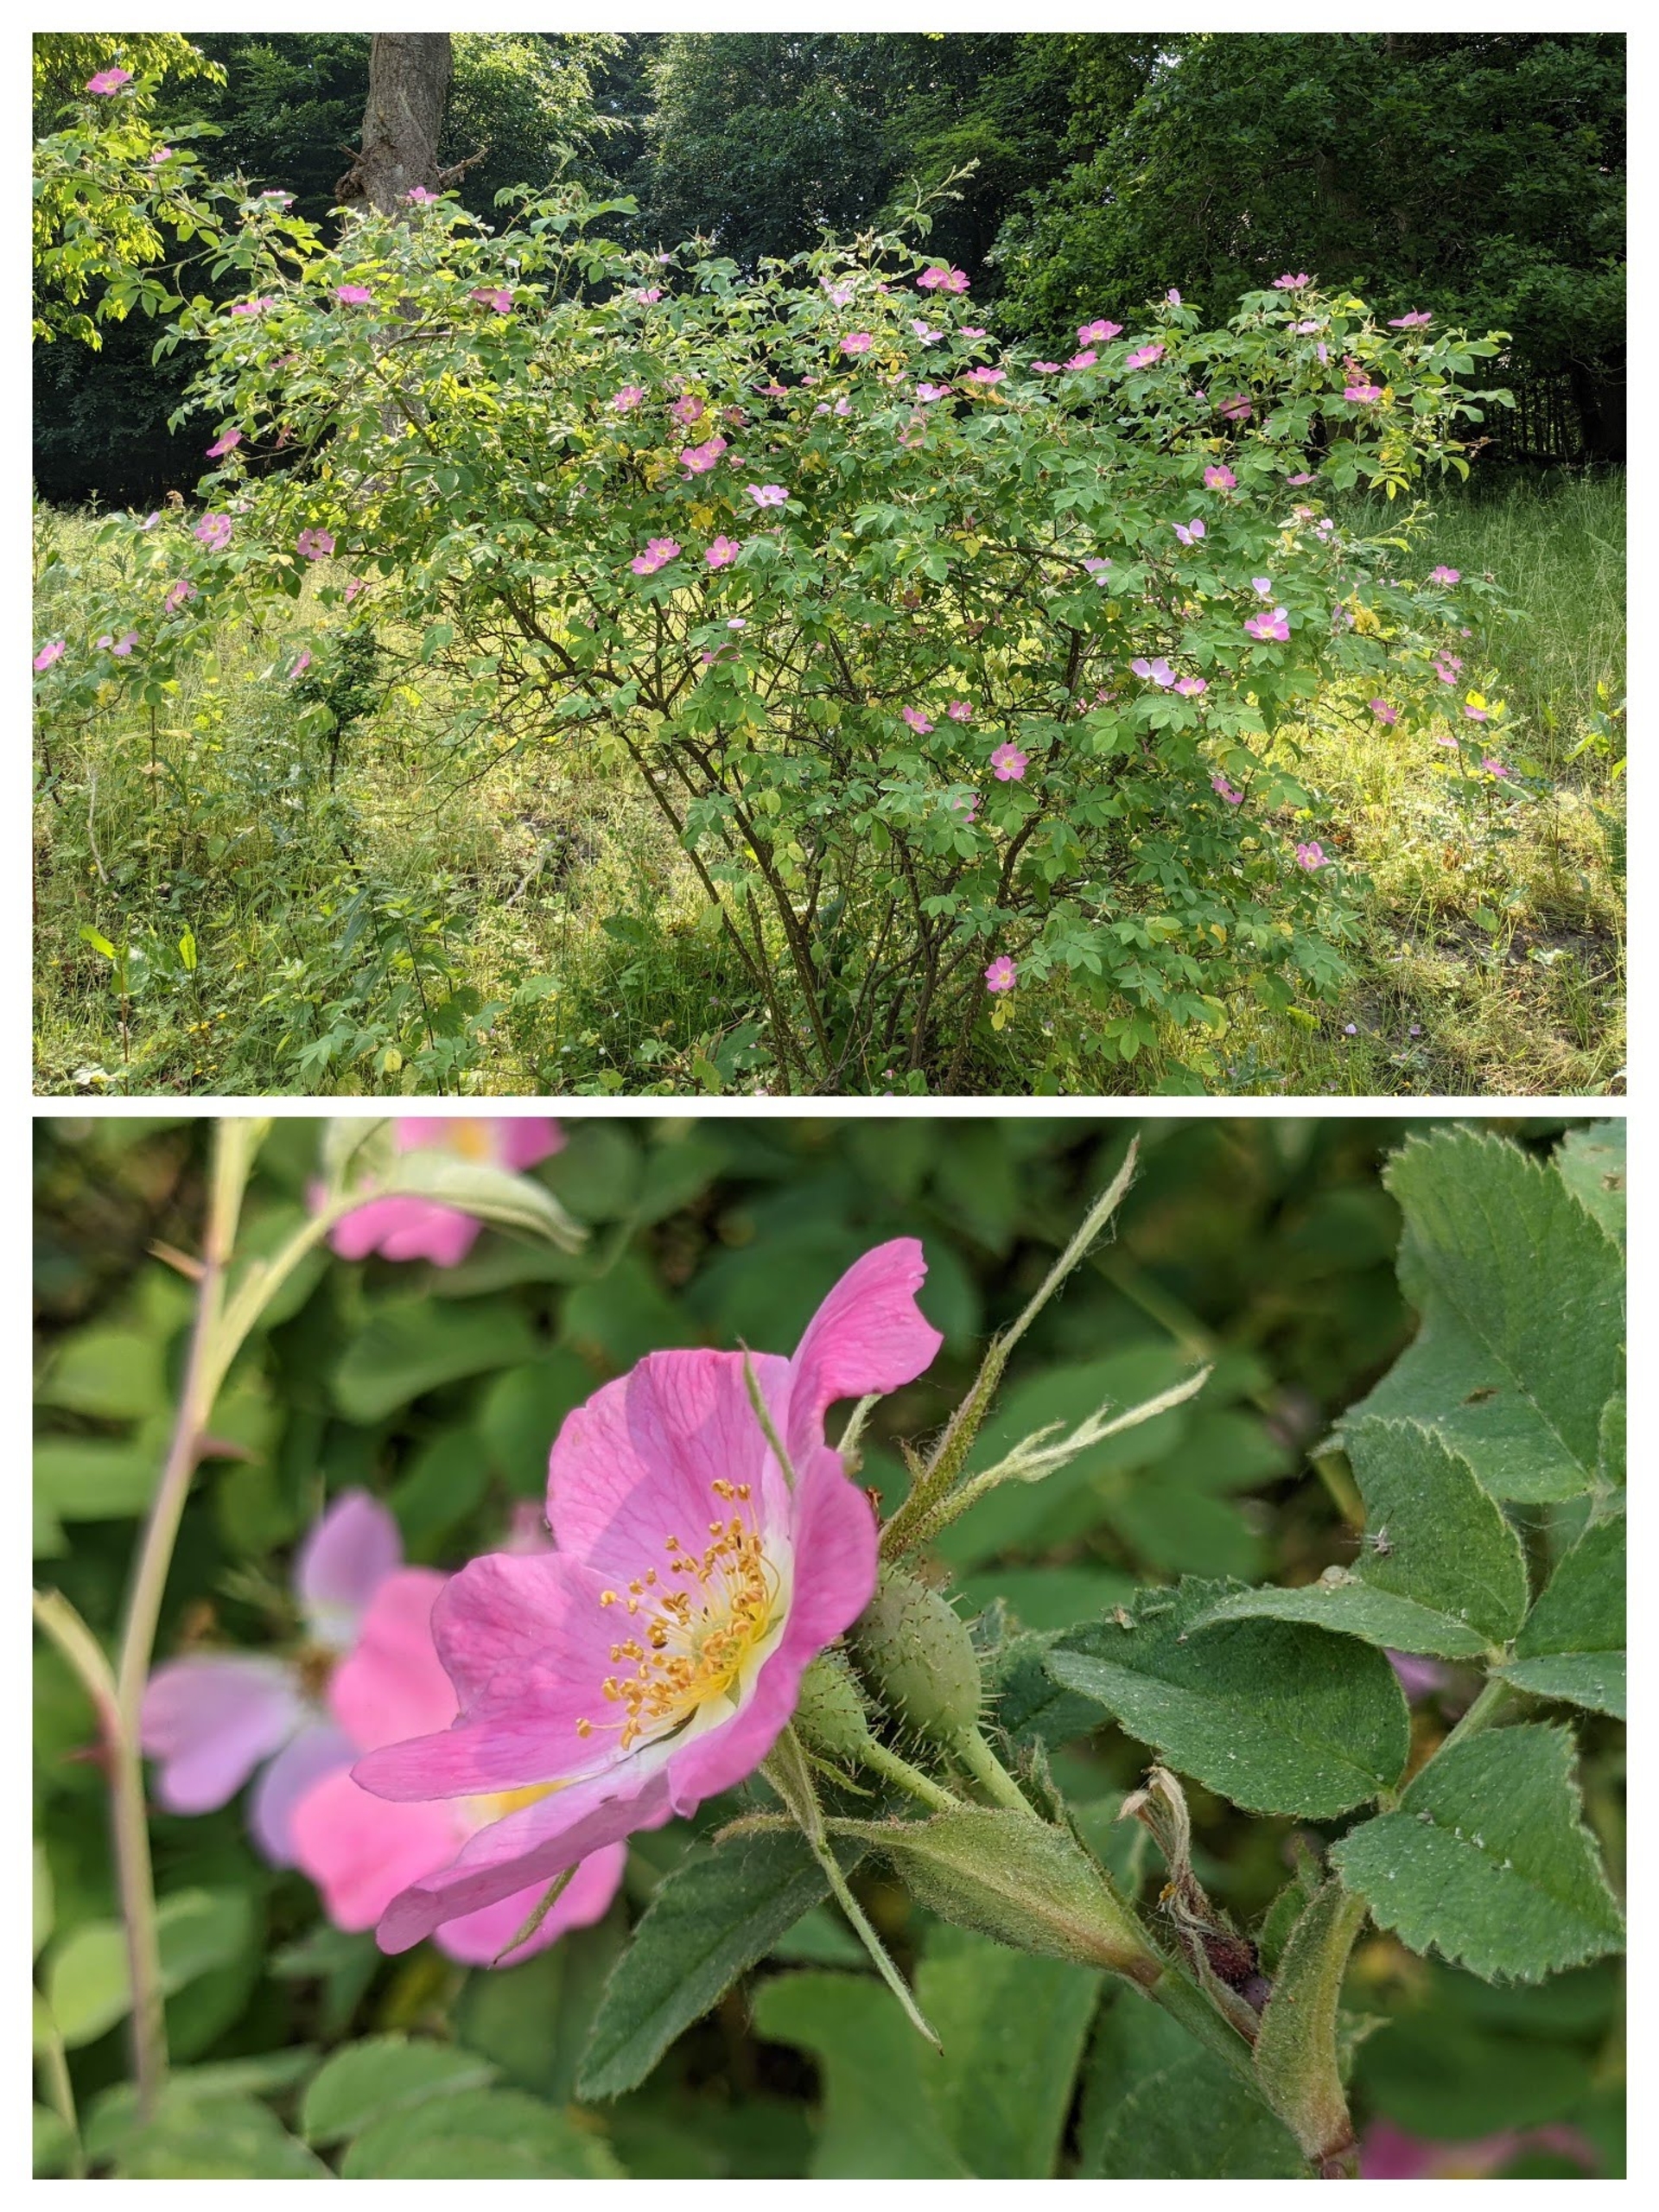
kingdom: Plantae
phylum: Tracheophyta
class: Magnoliopsida
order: Rosales
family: Rosaceae
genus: Rosa
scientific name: Rosa sherardii
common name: Kortstilket filt-rose
